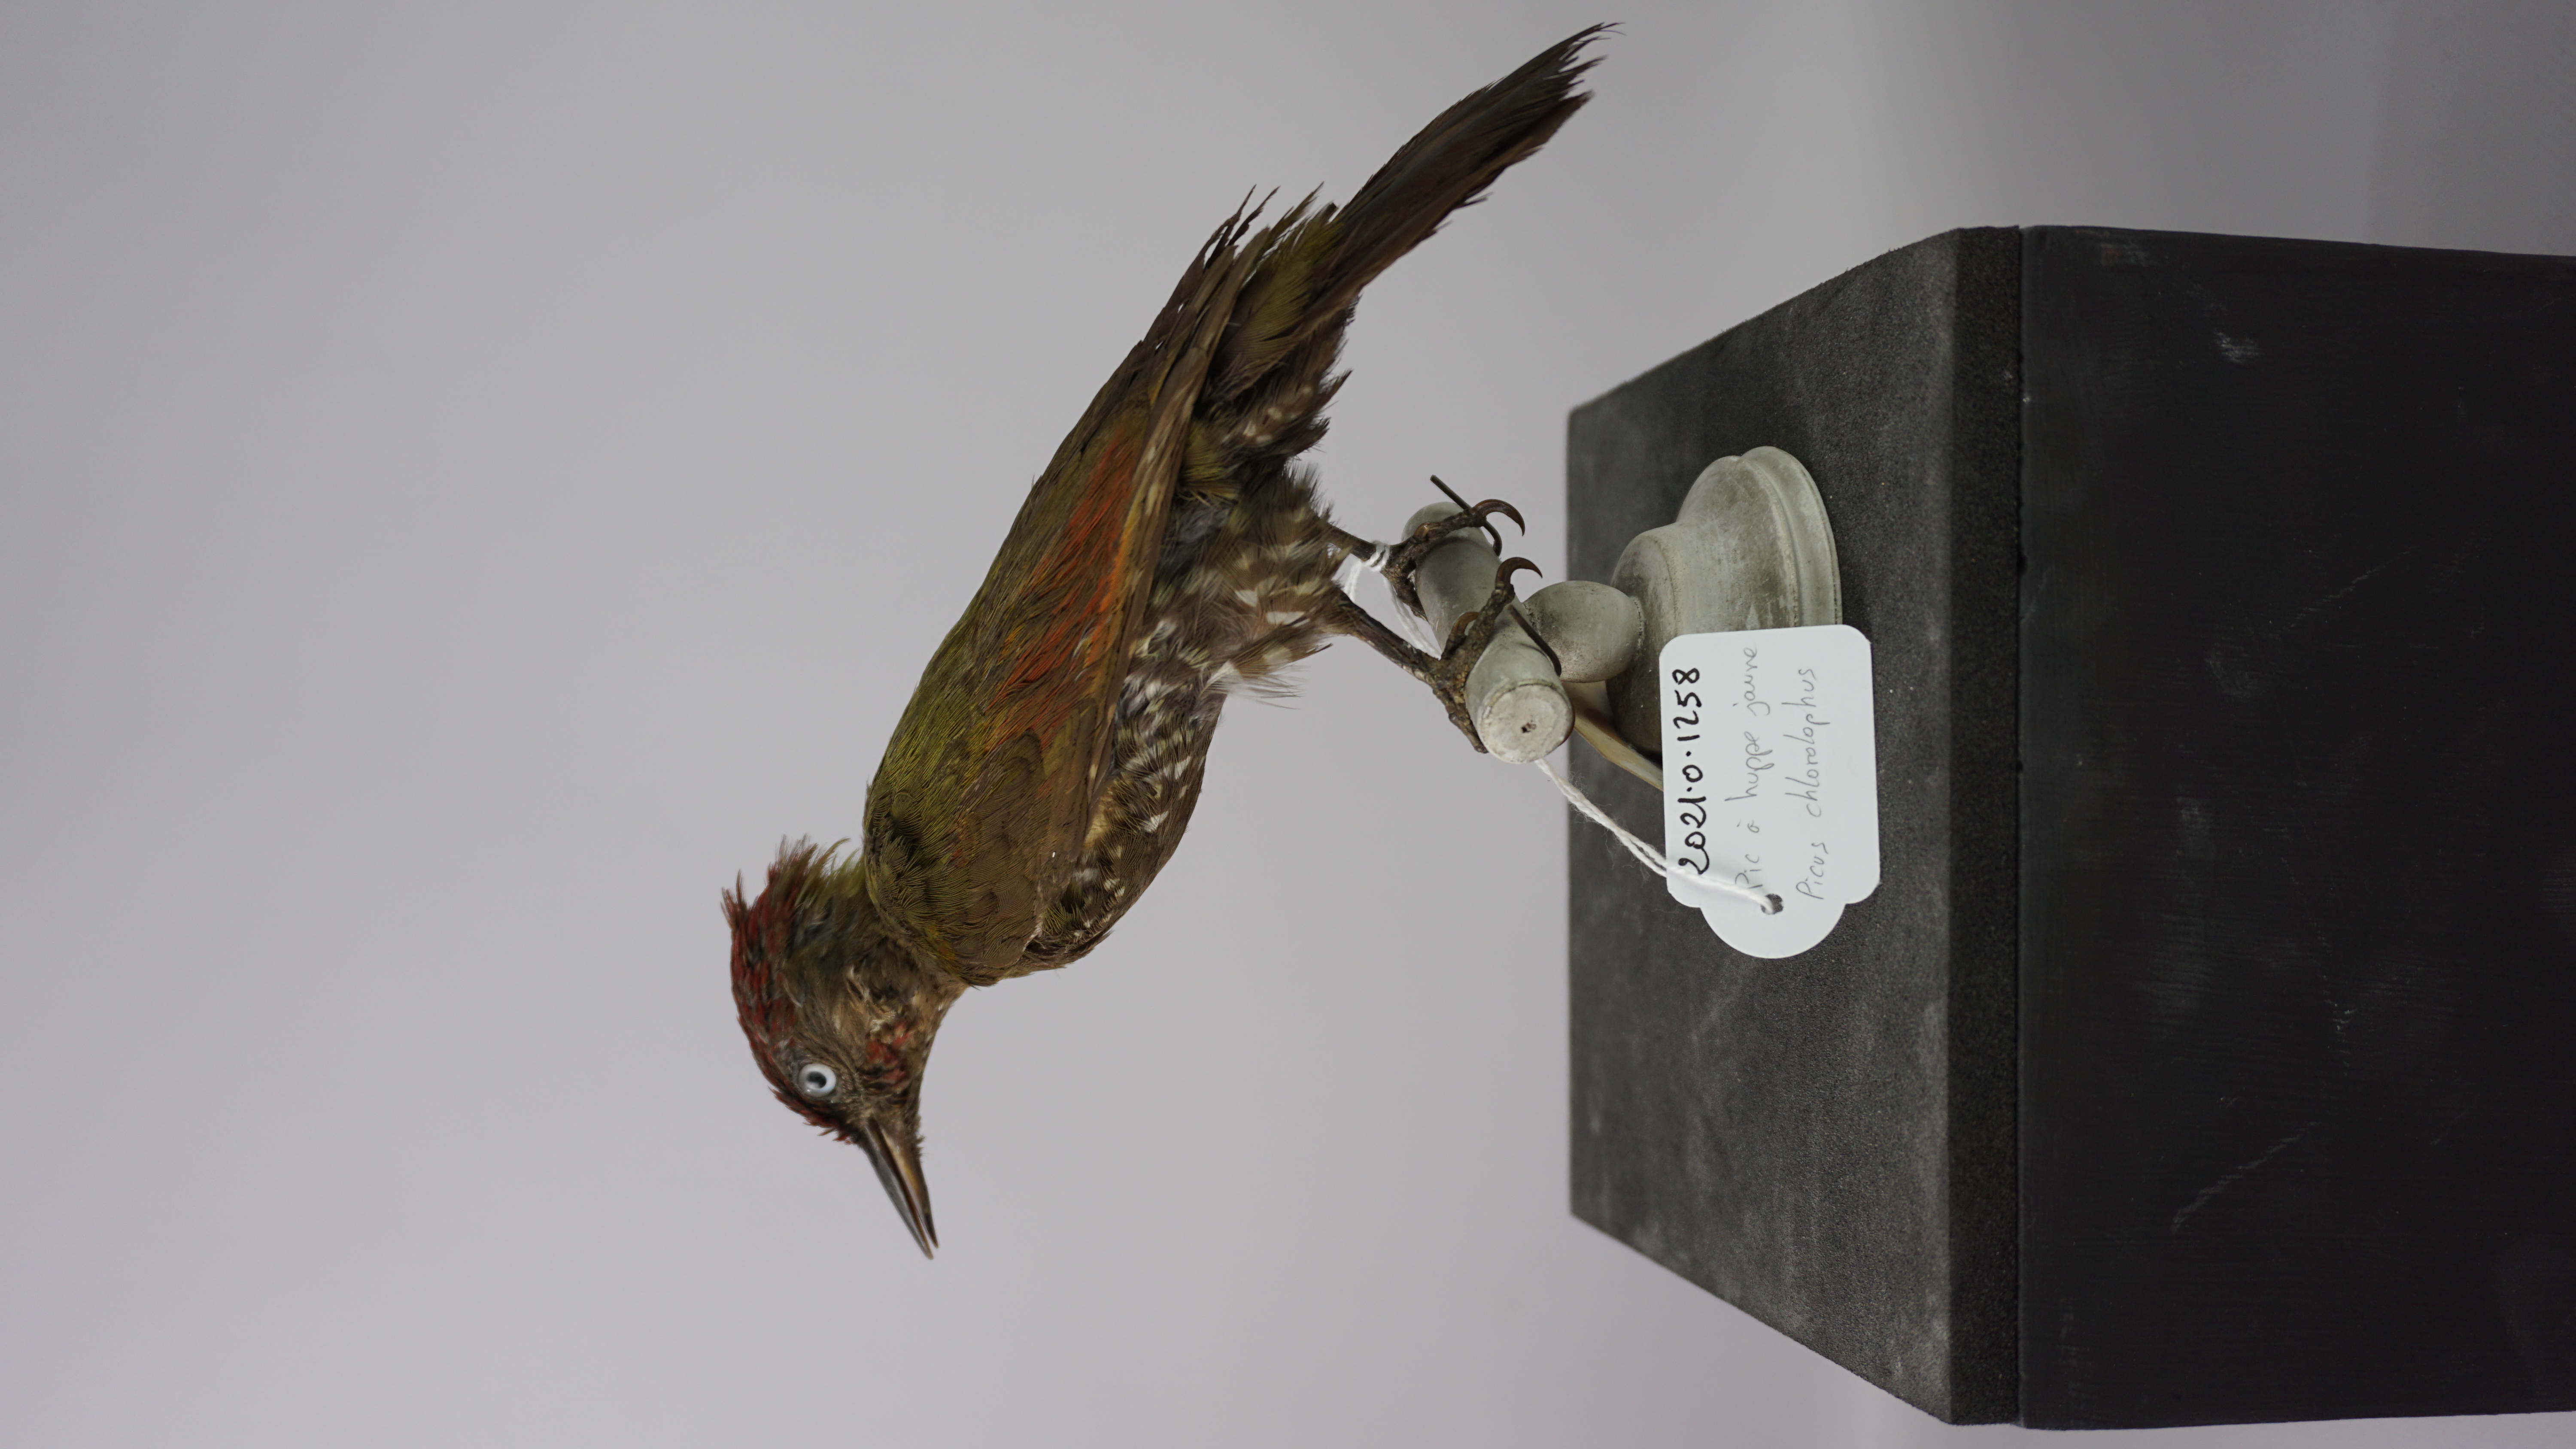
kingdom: Animalia
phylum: Chordata
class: Aves
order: Piciformes
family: Picidae
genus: Picus
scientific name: Picus chlorolophus
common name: Lesser yellownape
